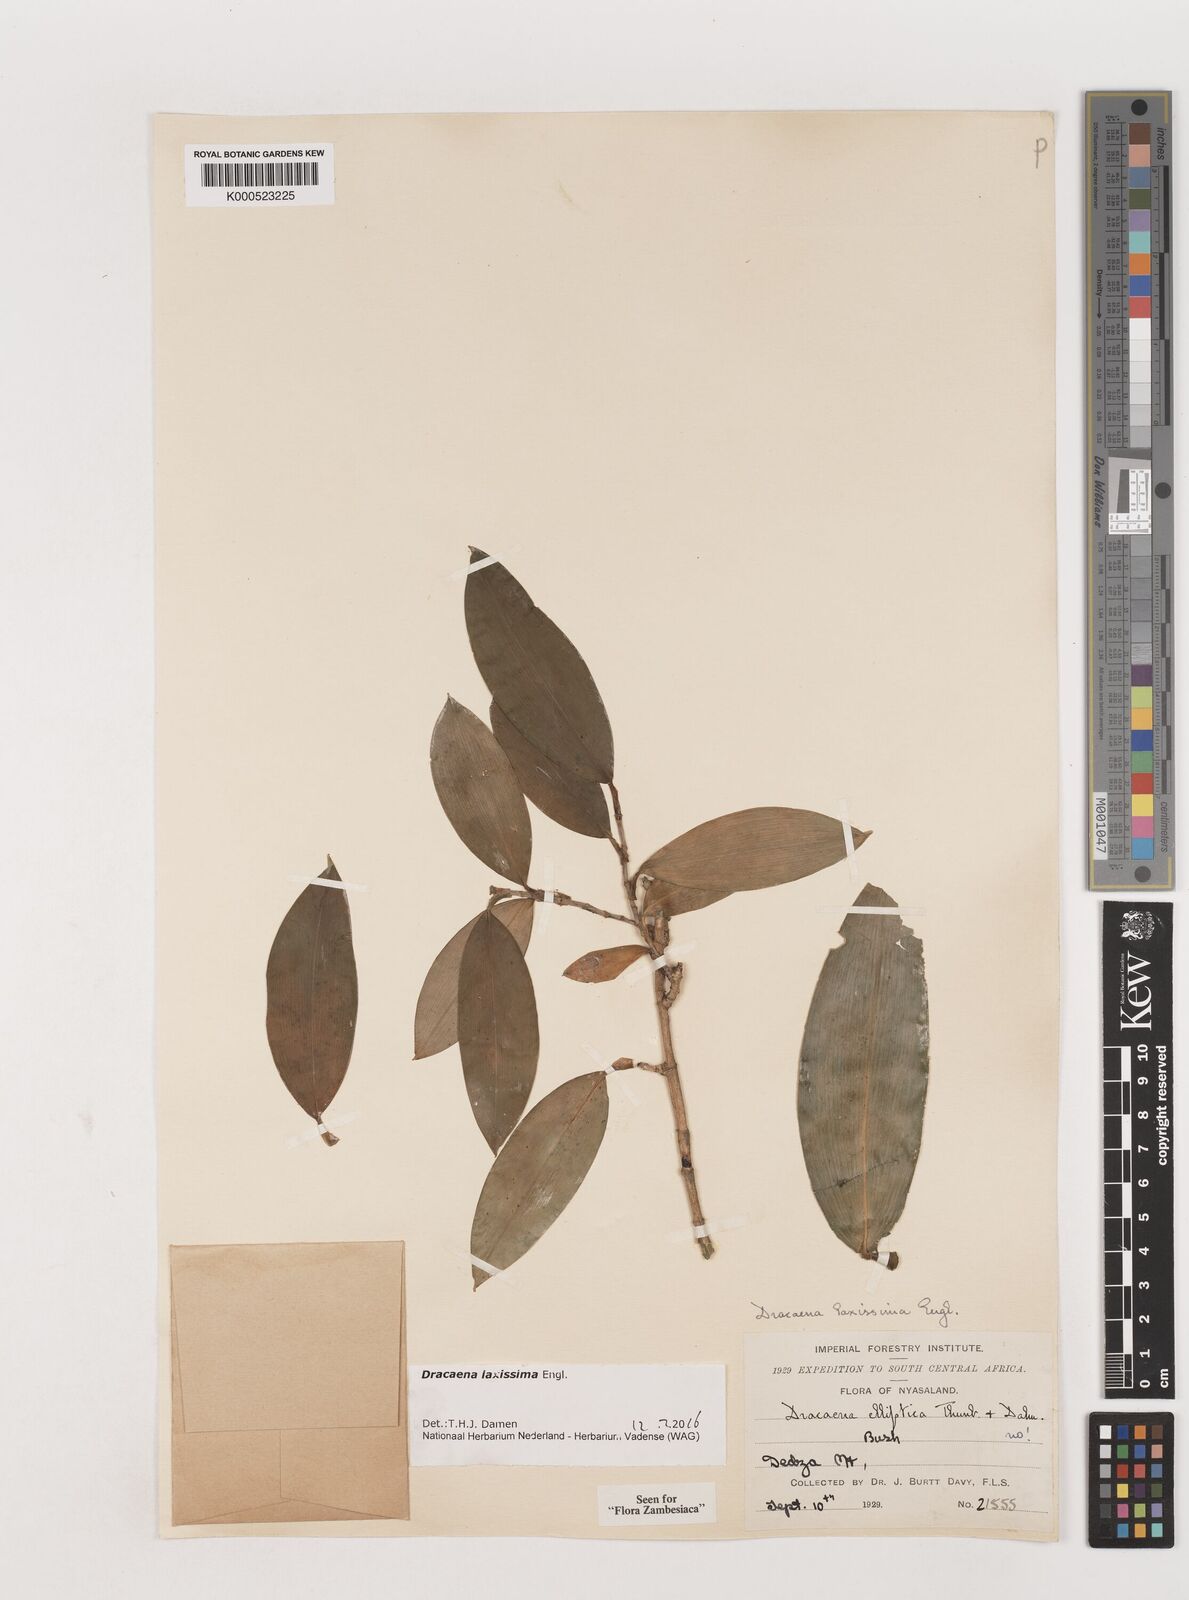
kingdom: Plantae
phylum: Tracheophyta
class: Liliopsida
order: Asparagales
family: Asparagaceae
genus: Dracaena
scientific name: Dracaena laxissima
